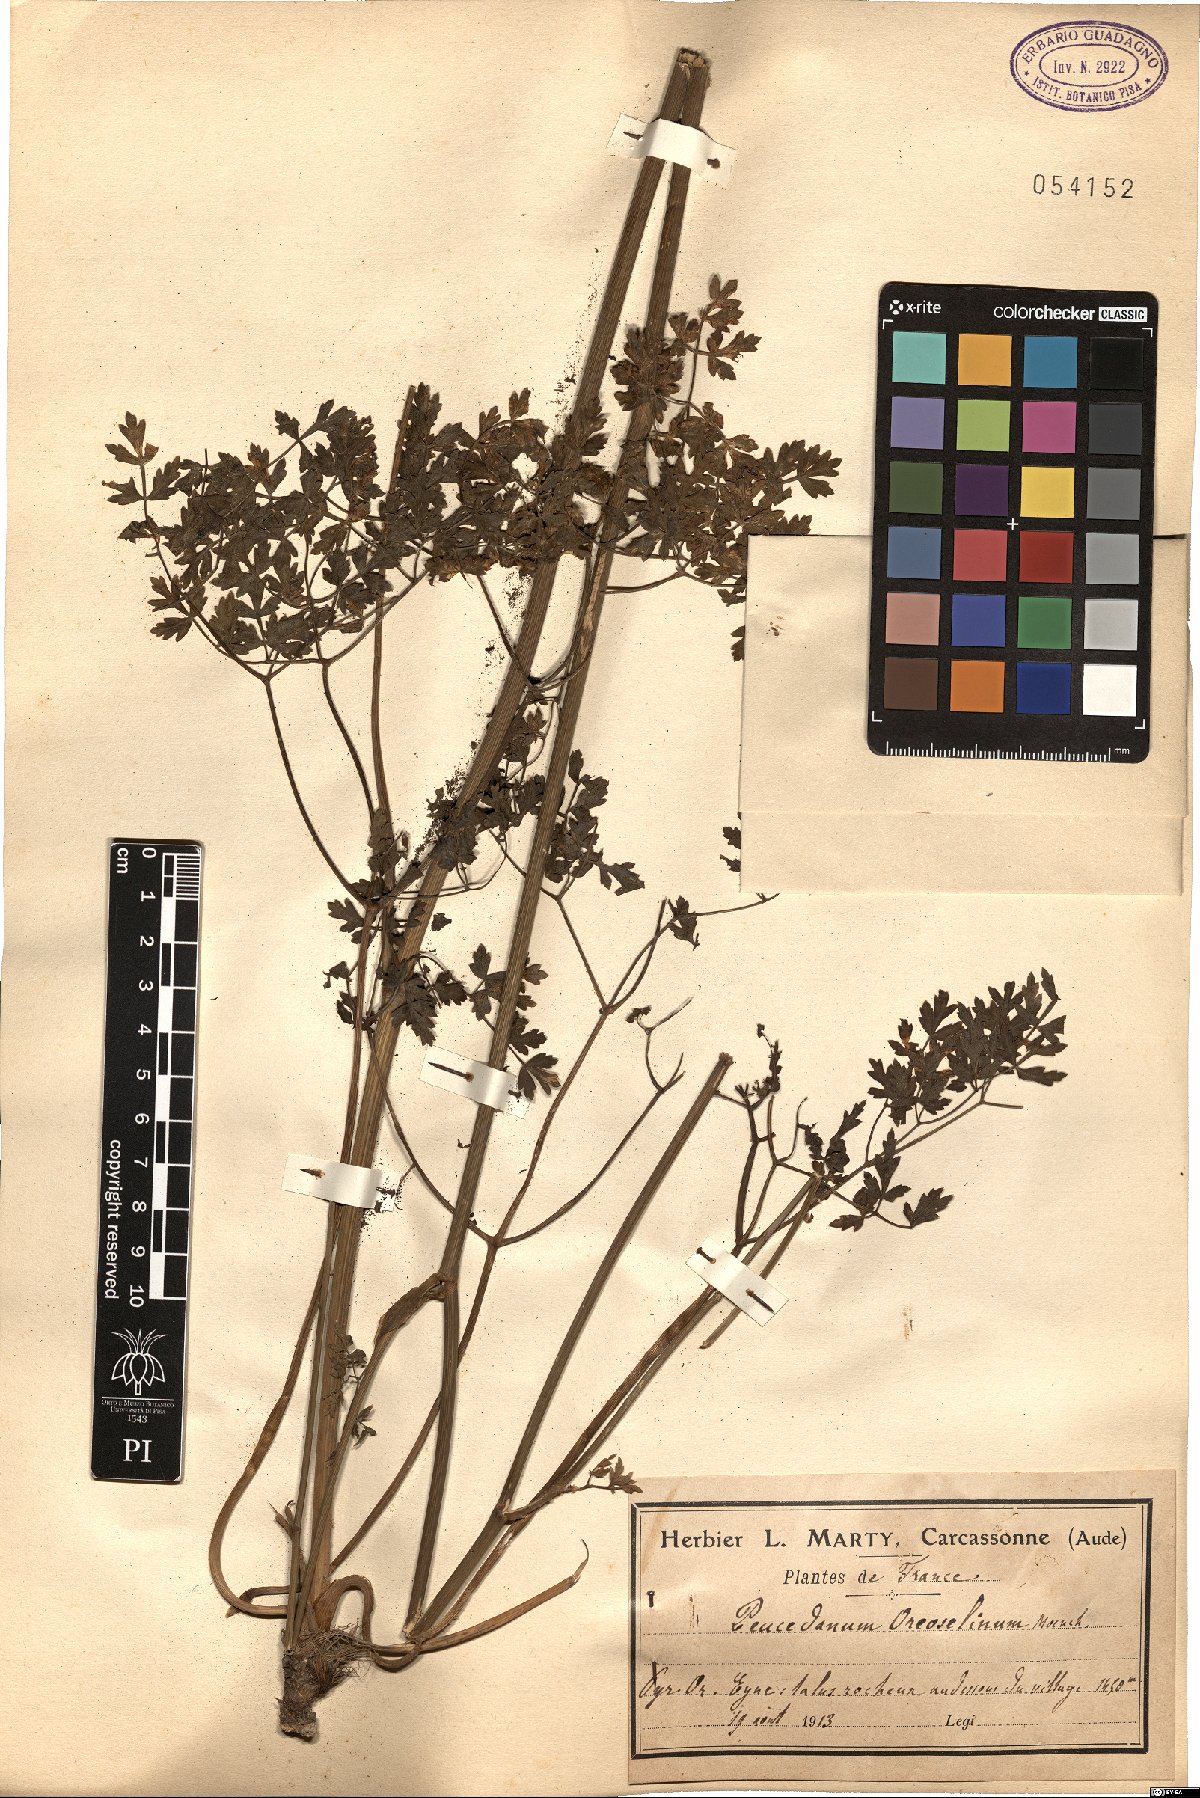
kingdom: Plantae
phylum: Tracheophyta
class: Magnoliopsida
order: Apiales
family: Apiaceae
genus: Oreoselinum
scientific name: Oreoselinum nigrum
